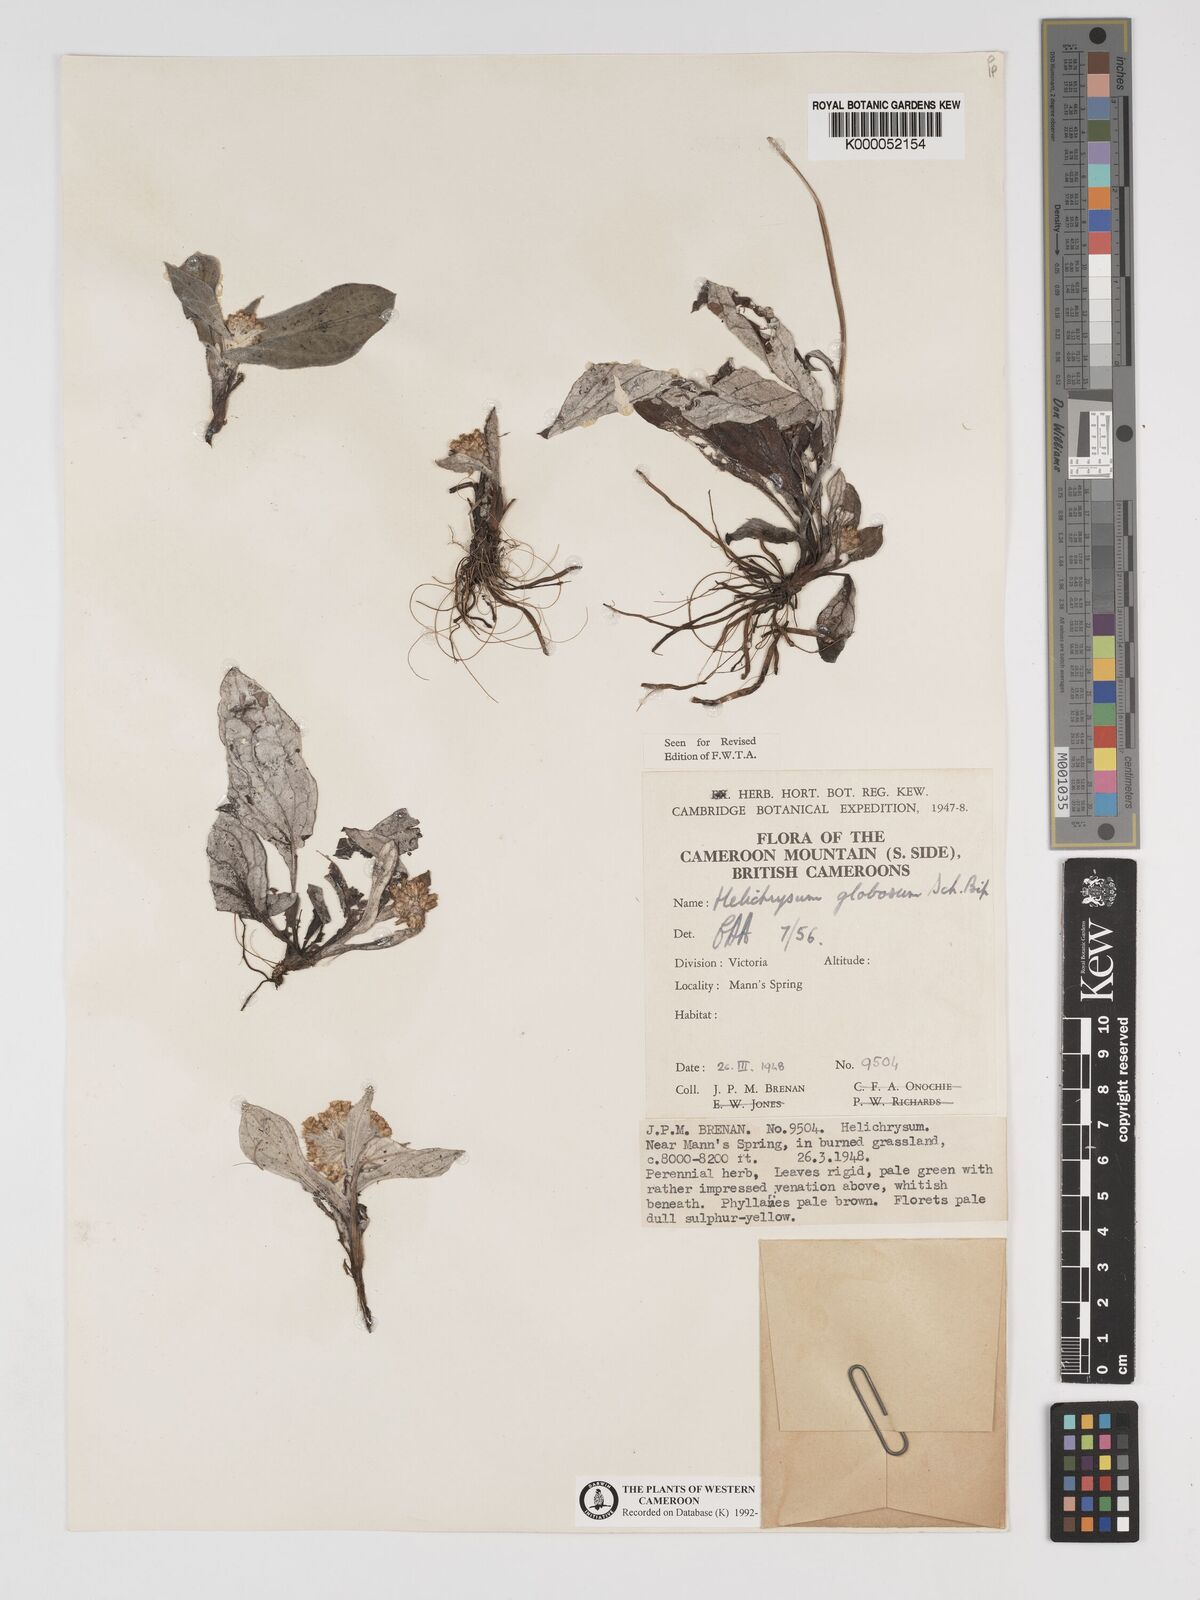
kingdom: Plantae
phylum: Tracheophyta
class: Magnoliopsida
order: Asterales
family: Asteraceae
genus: Helichrysum
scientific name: Helichrysum
